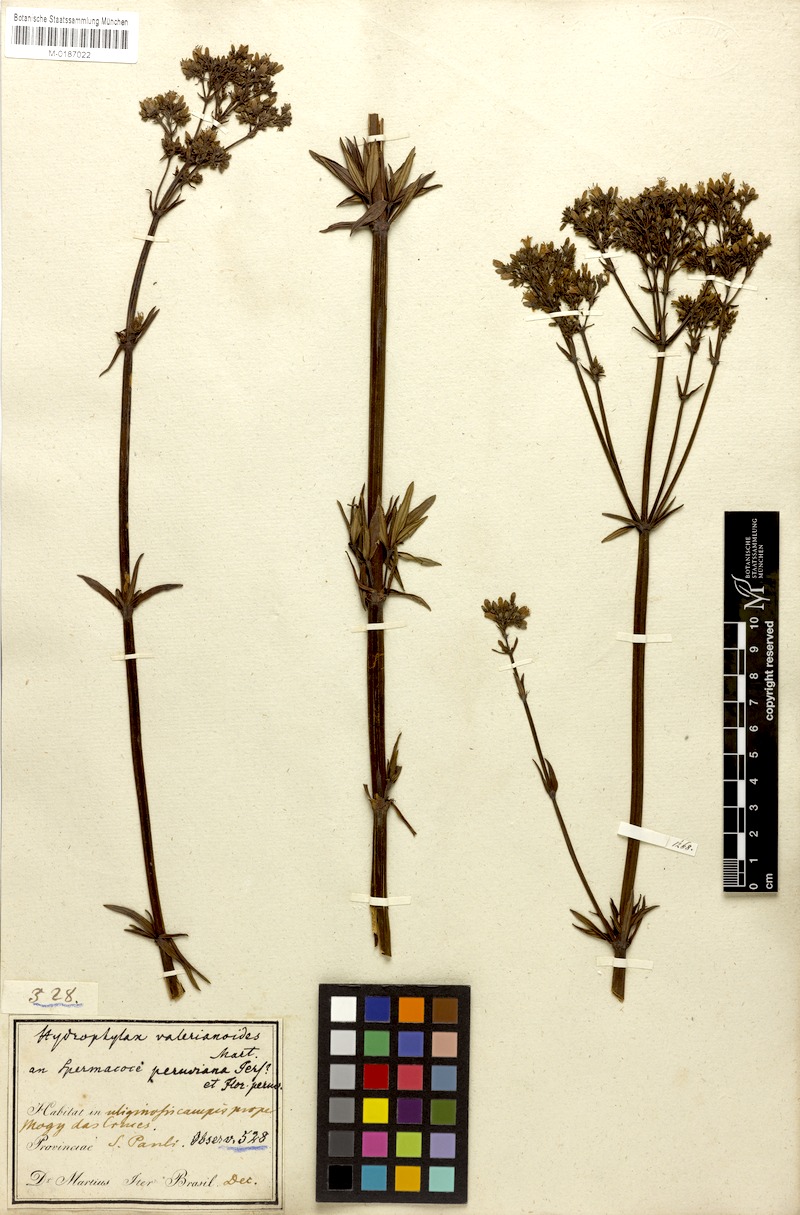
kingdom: Plantae
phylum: Tracheophyta
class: Magnoliopsida
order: Gentianales
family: Rubiaceae
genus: Galianthe
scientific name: Galianthe verbenoides
